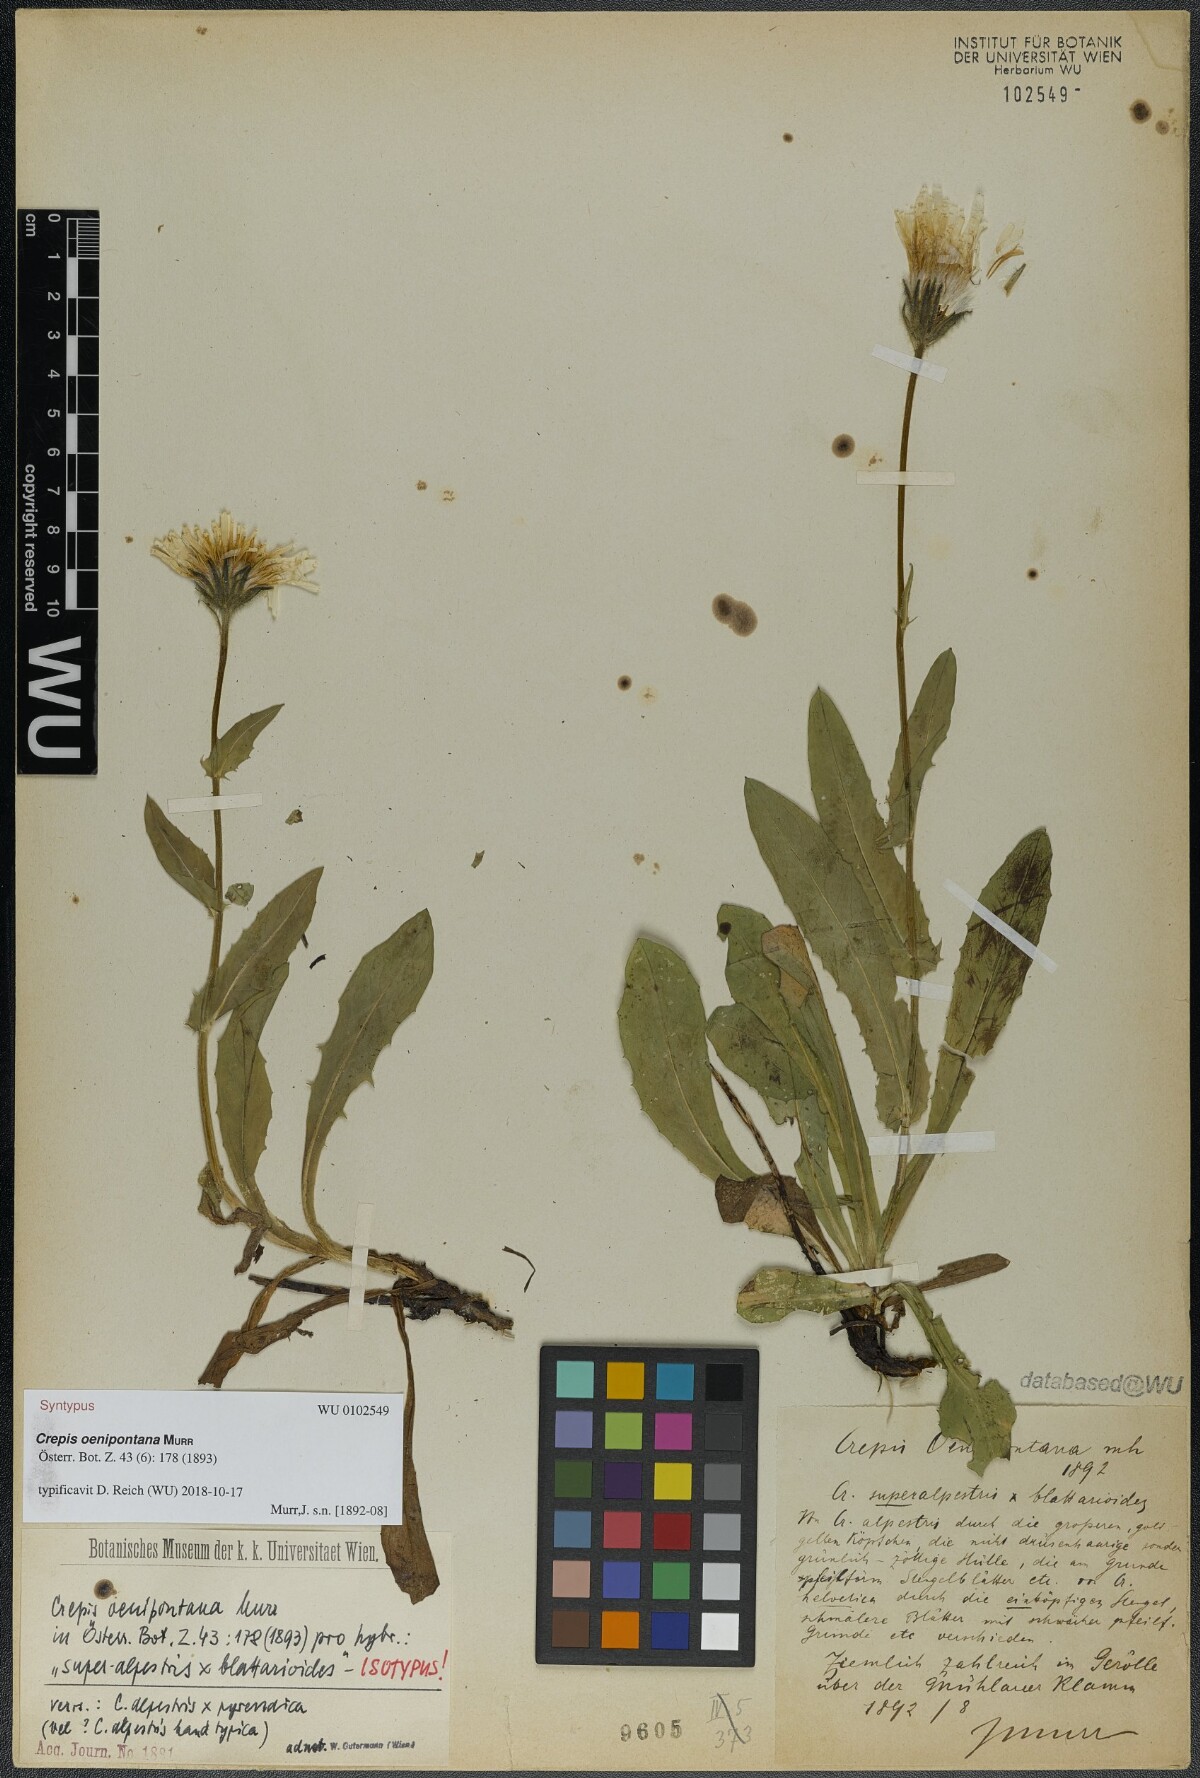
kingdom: Plantae
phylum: Tracheophyta
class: Magnoliopsida
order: Asterales
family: Asteraceae
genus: Crepis
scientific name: Crepis oenipontana
